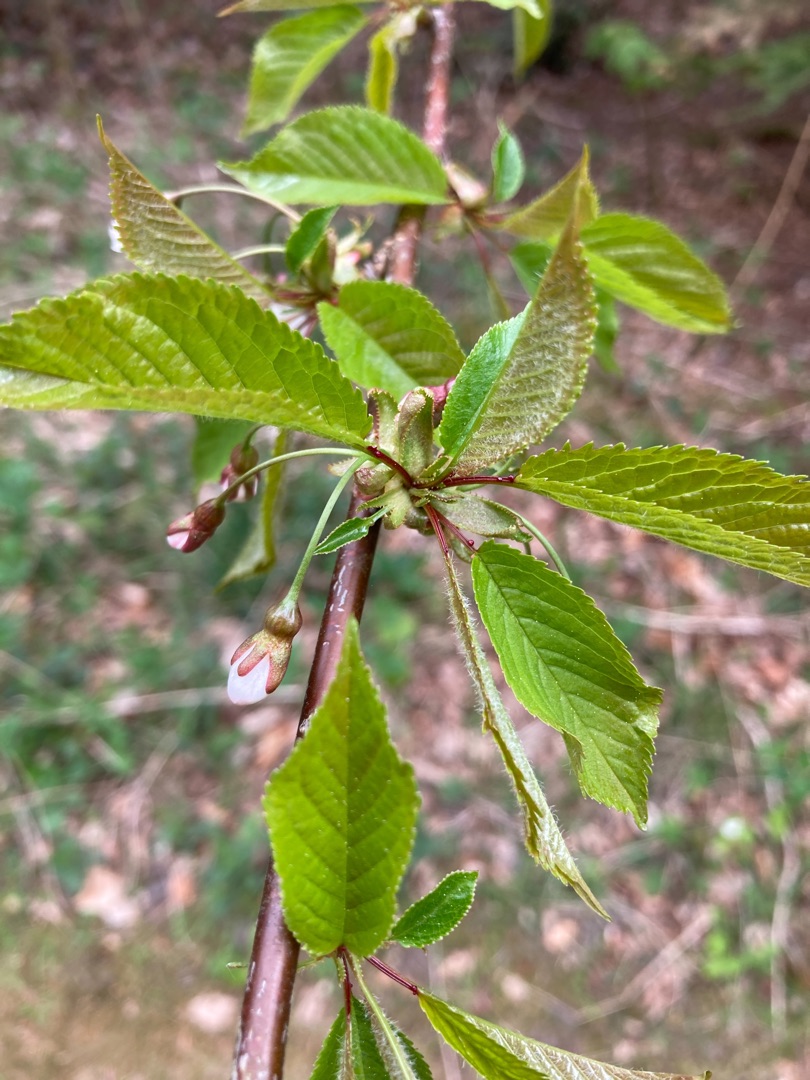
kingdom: Plantae
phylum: Tracheophyta
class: Magnoliopsida
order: Rosales
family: Rosaceae
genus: Prunus
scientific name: Prunus avium
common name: Fugle-kirsebær
